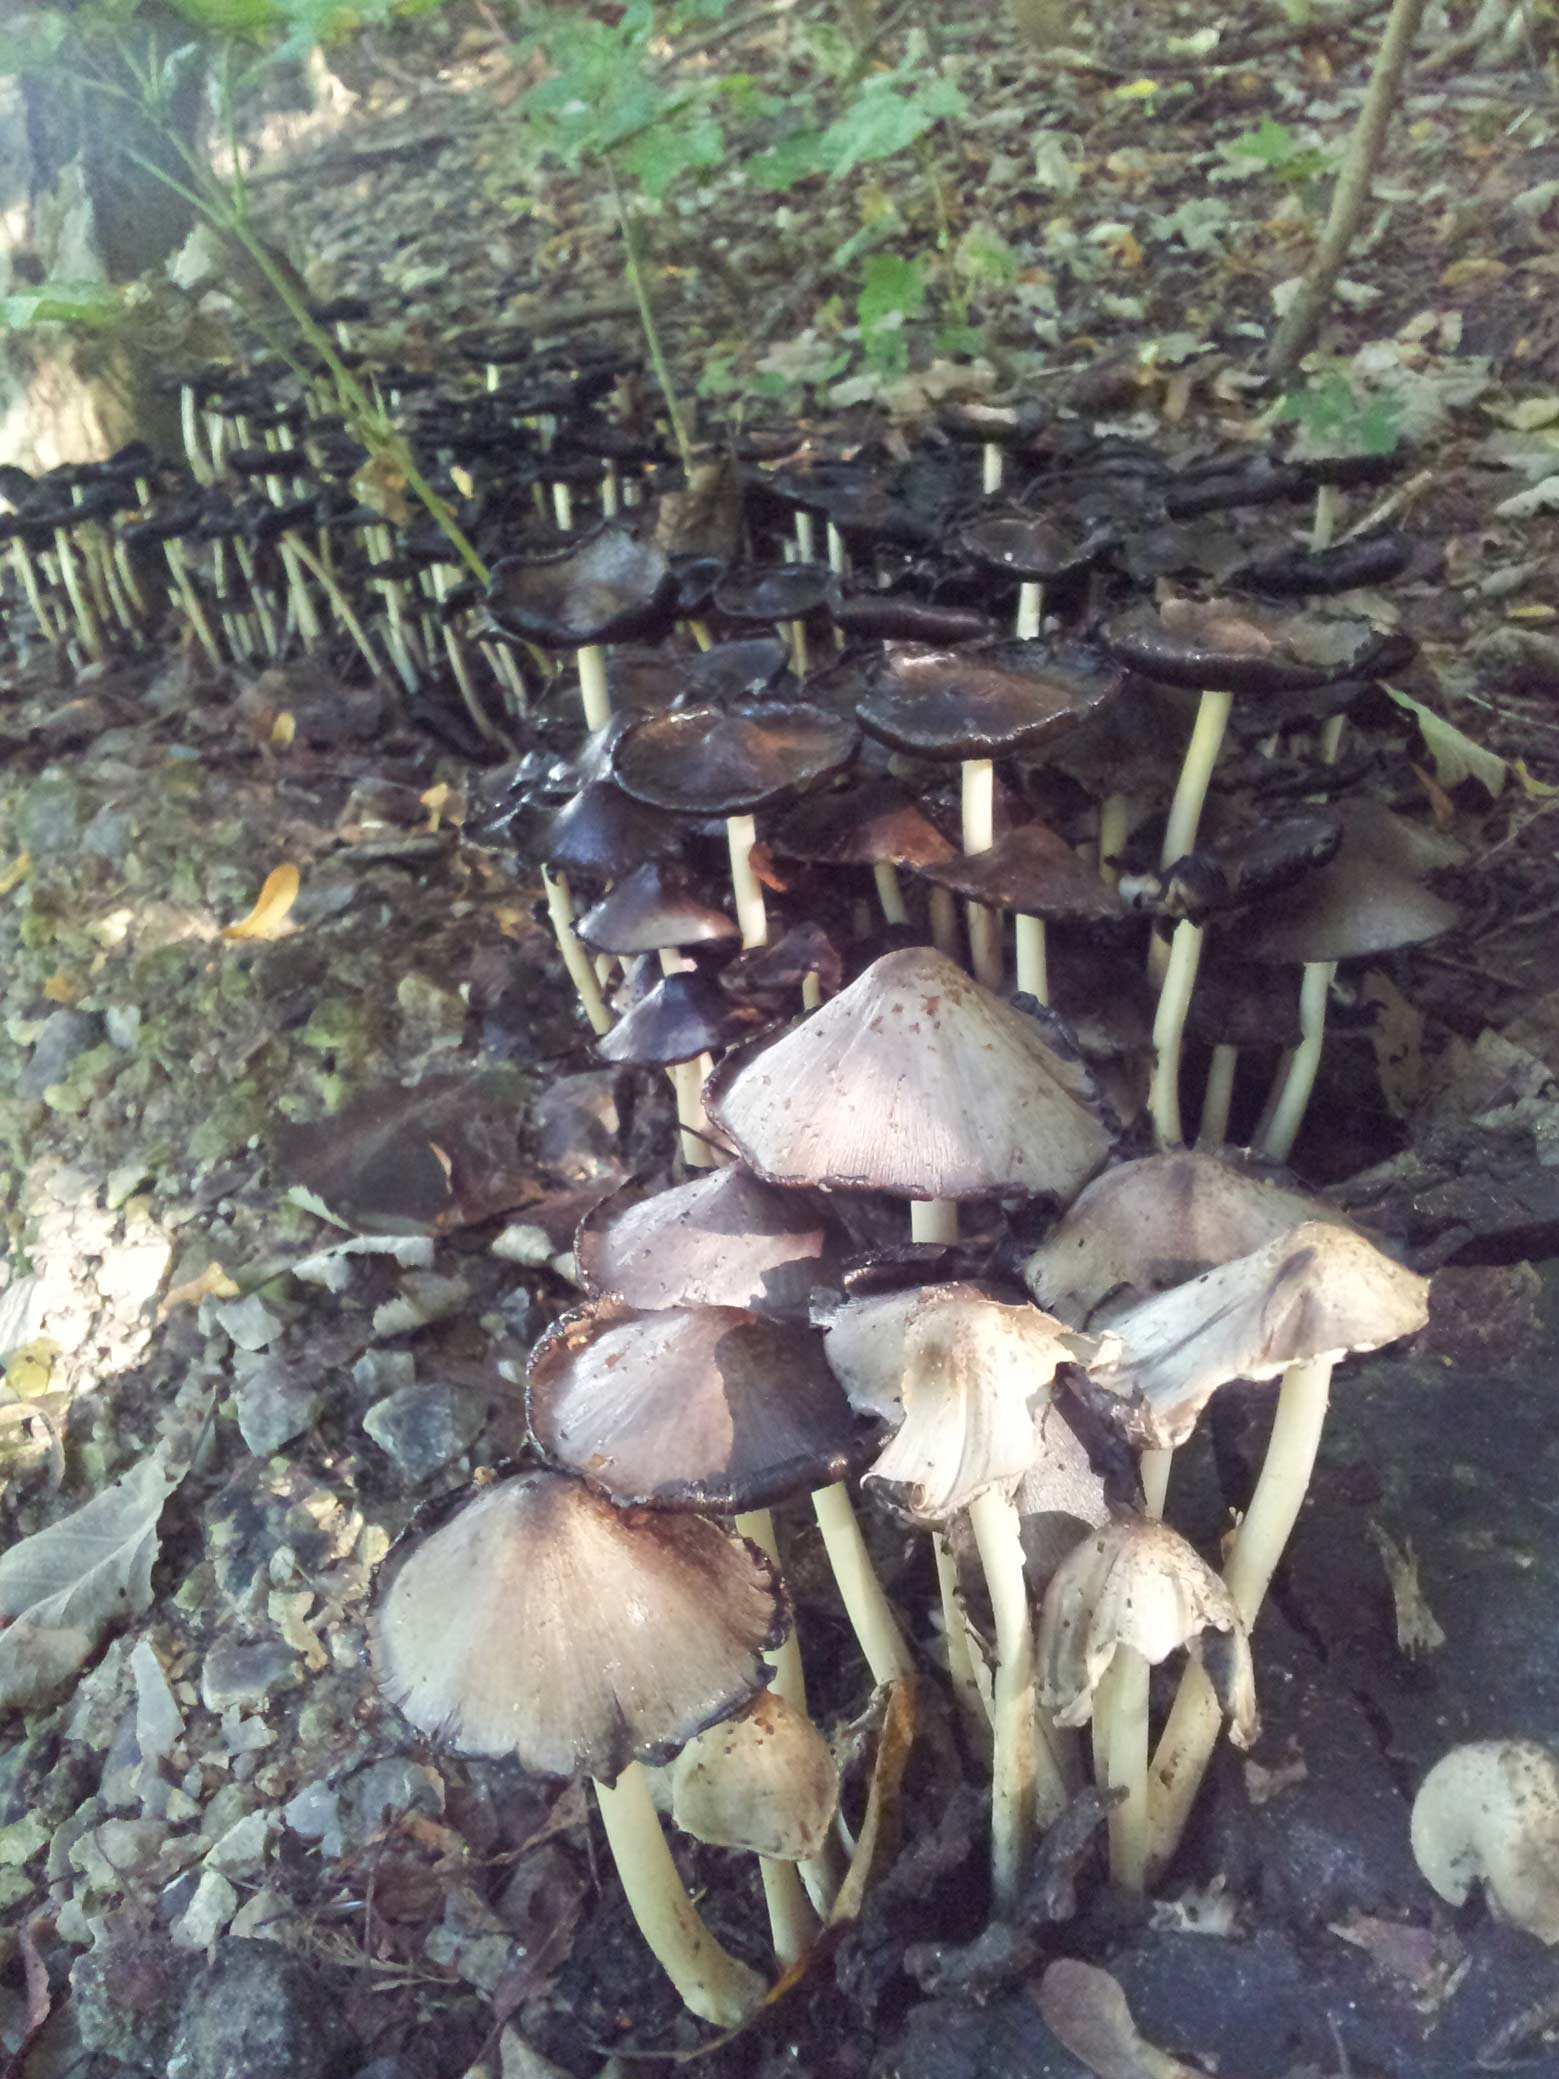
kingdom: Fungi
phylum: Basidiomycota
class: Agaricomycetes
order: Agaricales
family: Psathyrellaceae
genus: Coprinopsis
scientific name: Coprinopsis atramentaria
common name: almindelig blækhat
